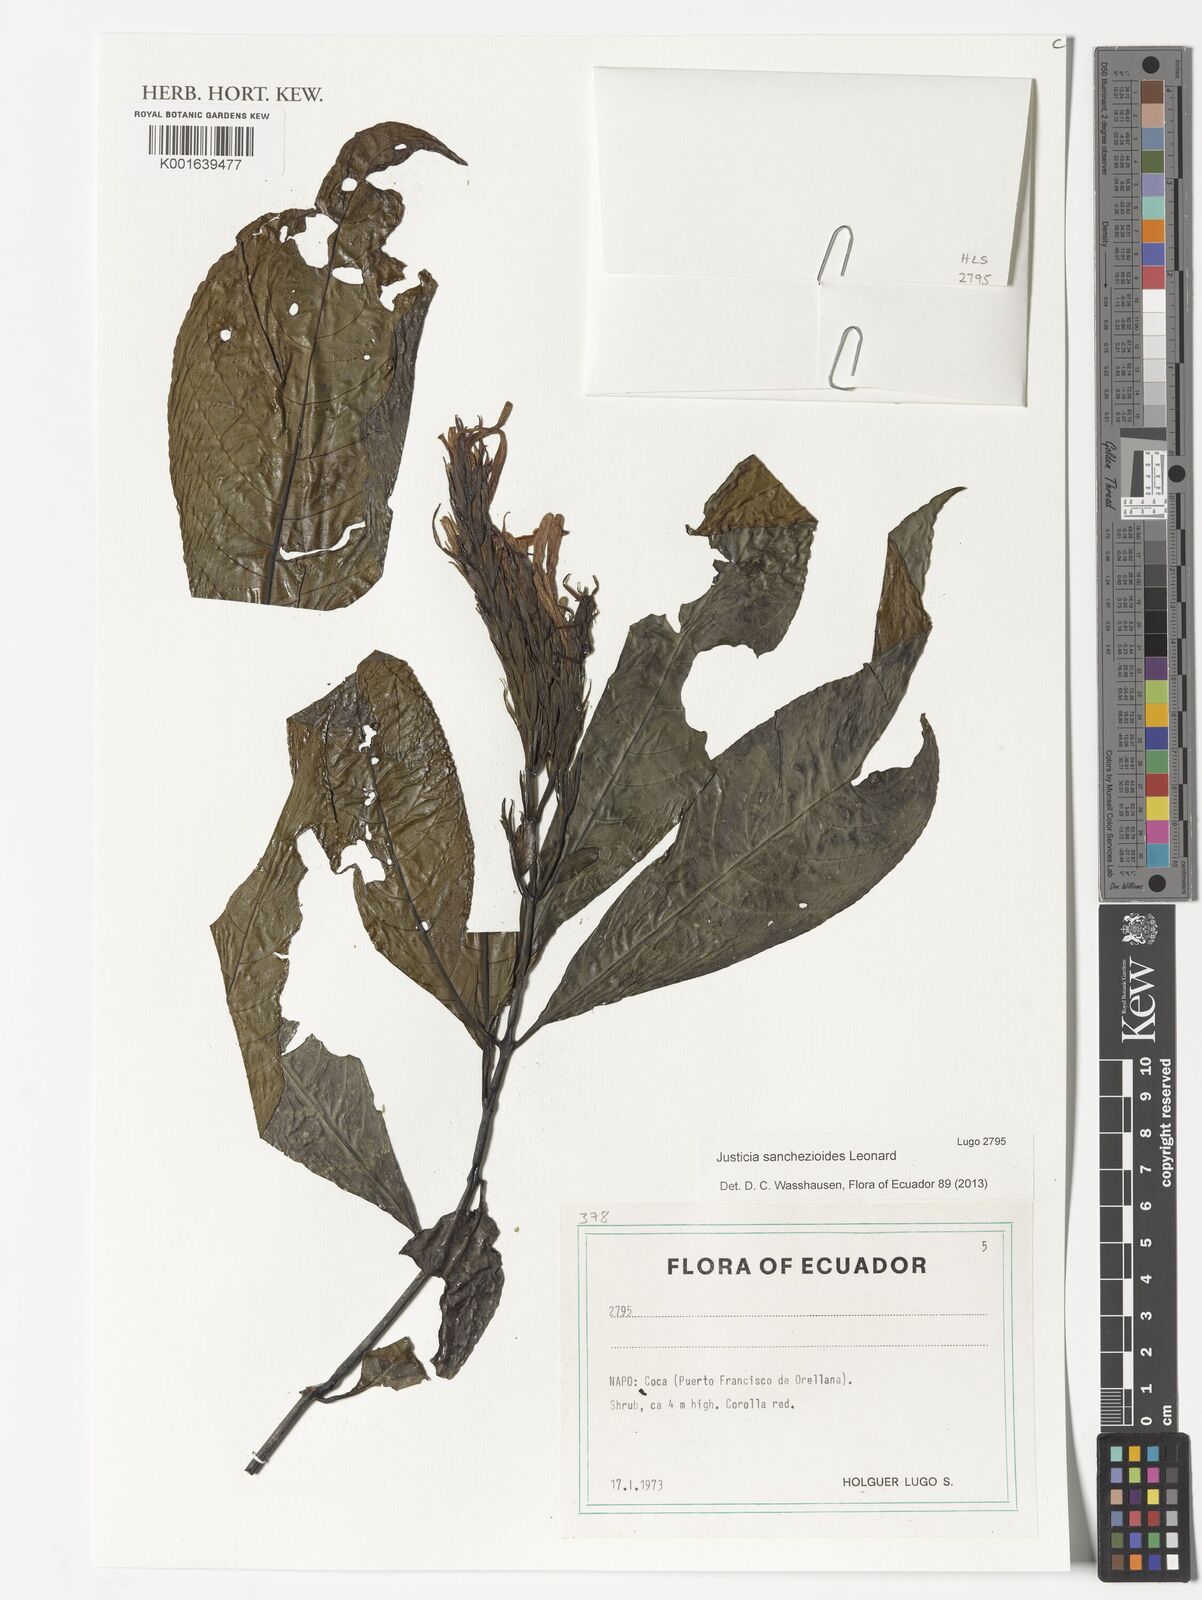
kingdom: Plantae
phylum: Tracheophyta
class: Magnoliopsida
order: Lamiales
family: Acanthaceae
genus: Justicia
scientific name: Justicia sanchezioides
